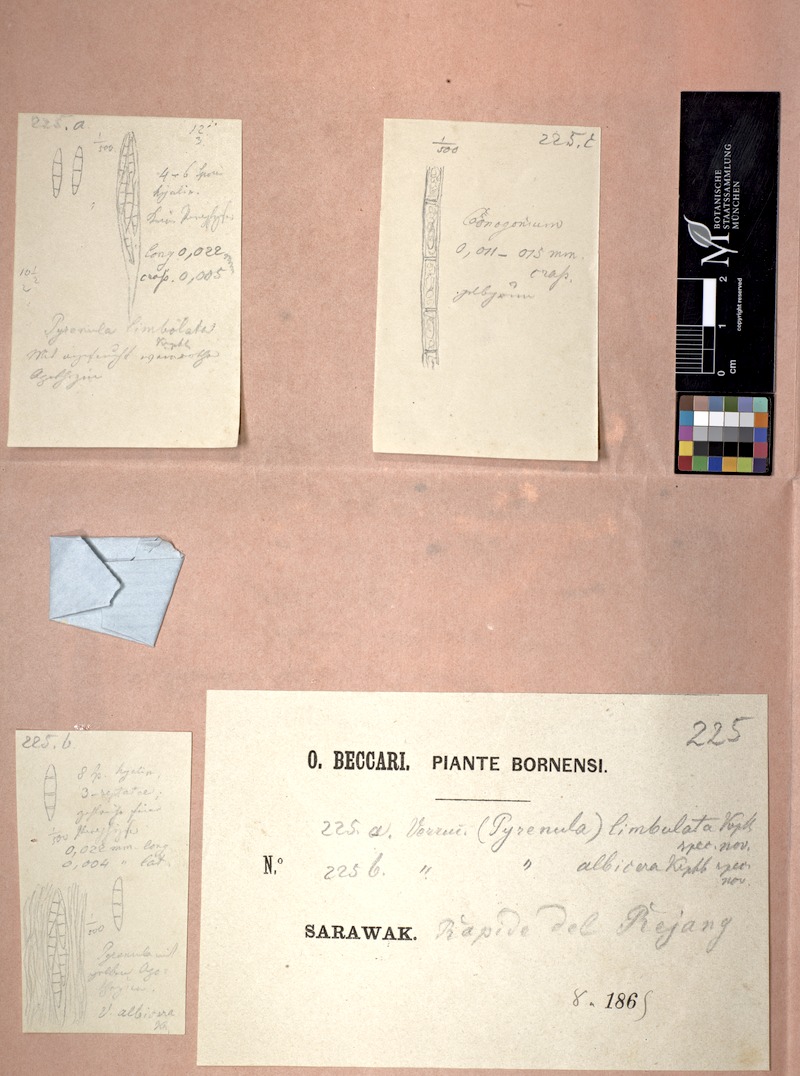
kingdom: Fungi
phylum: Ascomycota
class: Lecanoromycetes
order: Pertusariales
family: Pertusariaceae
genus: Porina
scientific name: Porina limbulata
